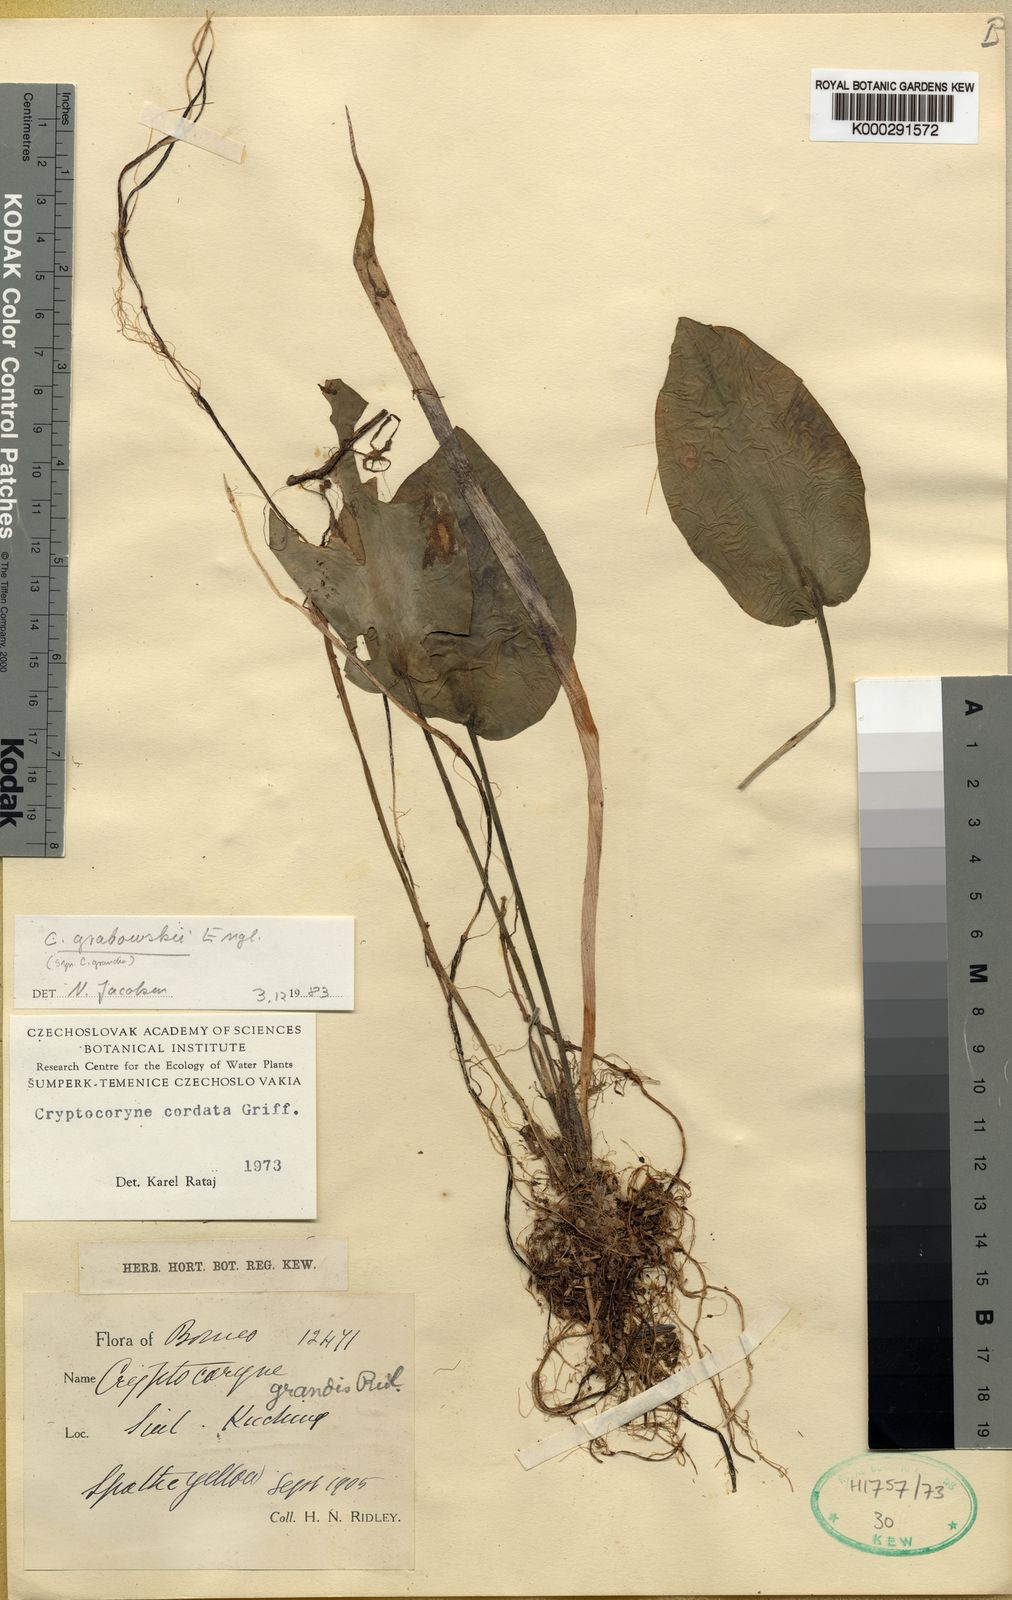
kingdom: Plantae
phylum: Tracheophyta
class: Liliopsida
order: Alismatales
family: Araceae
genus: Cryptocoryne
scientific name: Cryptocoryne cordata
